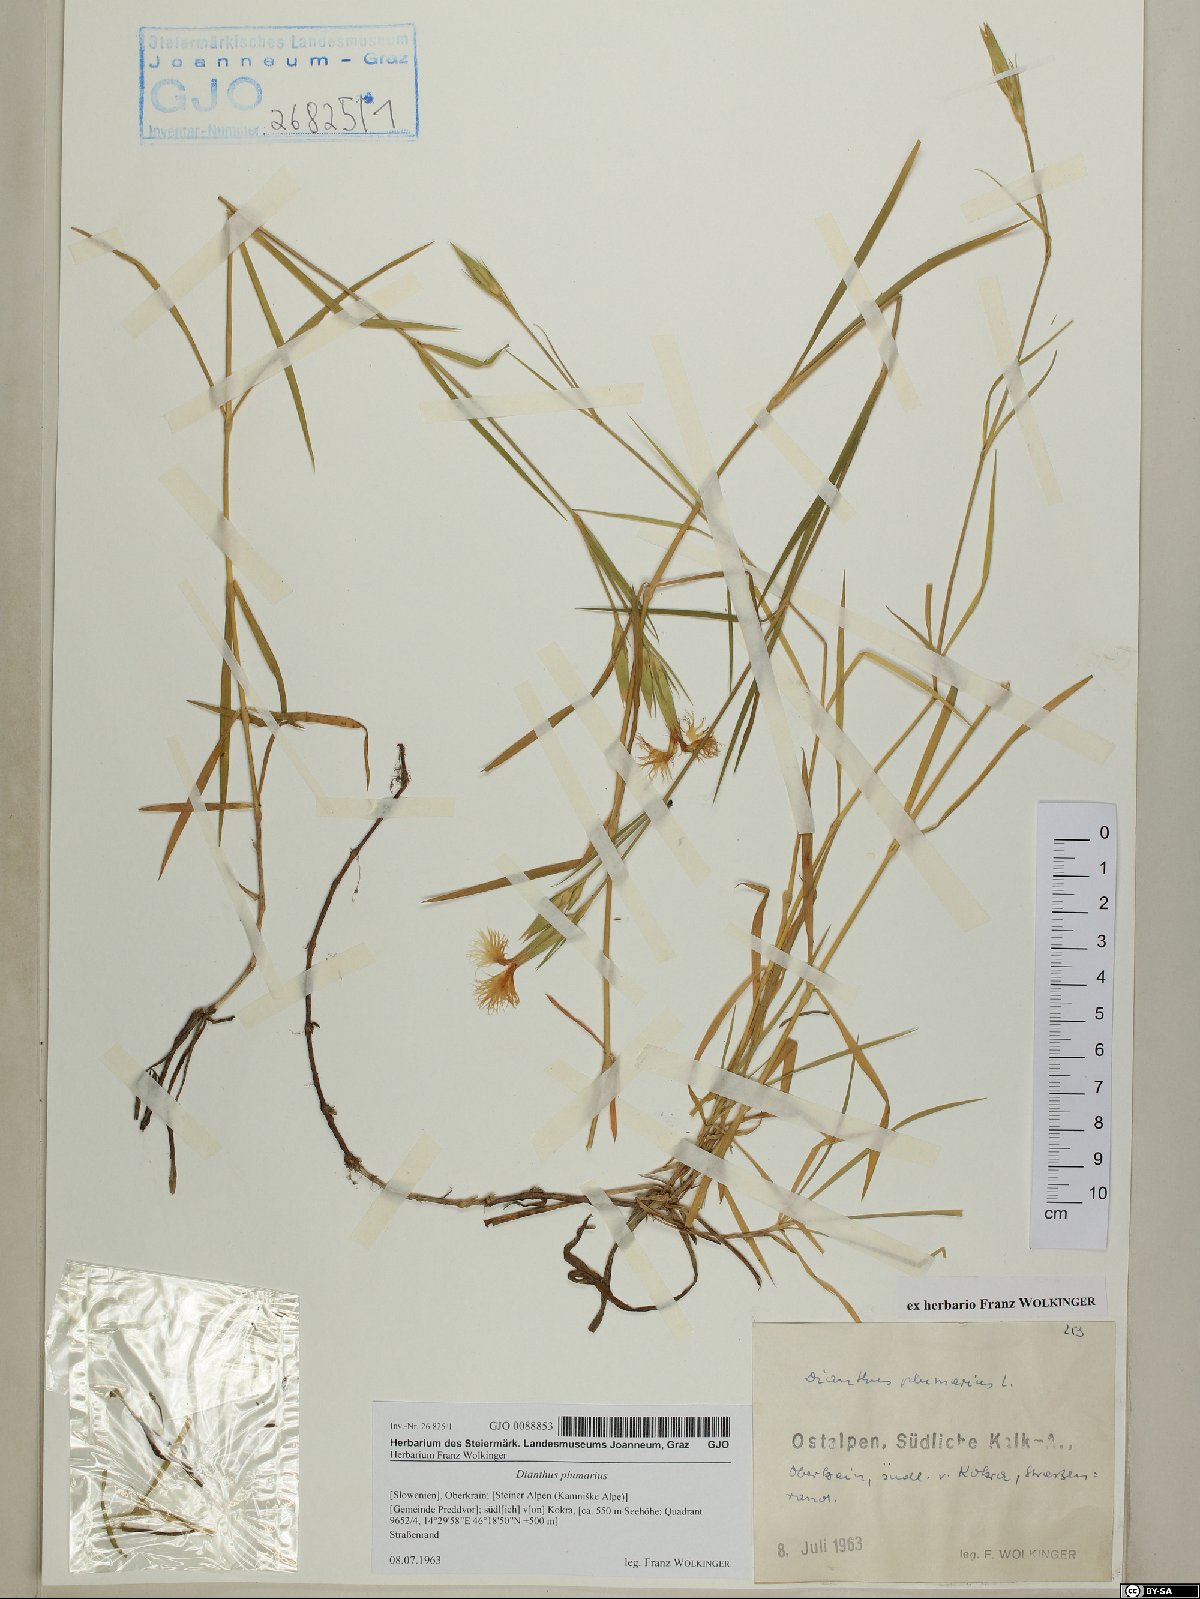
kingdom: Plantae
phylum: Tracheophyta
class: Magnoliopsida
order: Caryophyllales
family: Caryophyllaceae
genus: Dianthus
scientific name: Dianthus plumarius
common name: Pink
